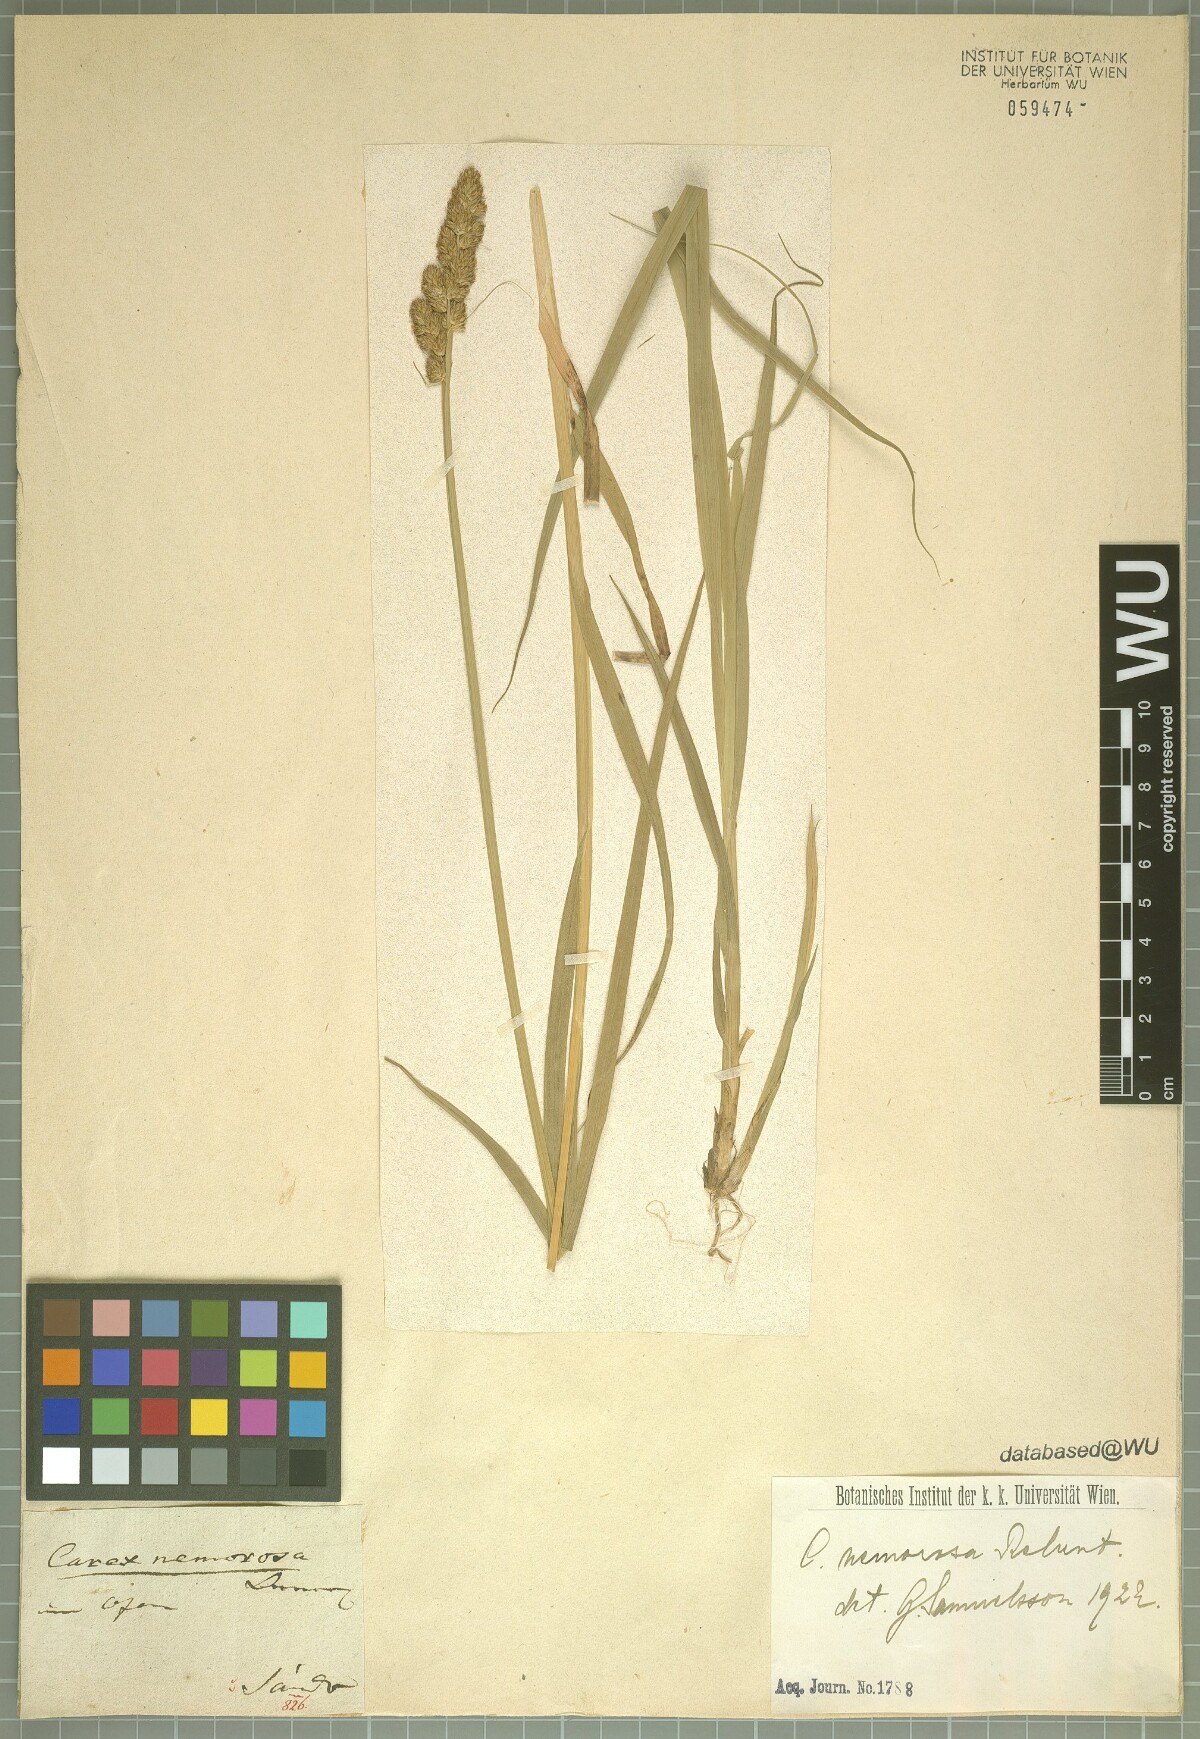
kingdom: Plantae
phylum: Tracheophyta
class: Liliopsida
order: Poales
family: Cyperaceae
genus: Carex
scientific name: Carex otrubae
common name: False fox-sedge
